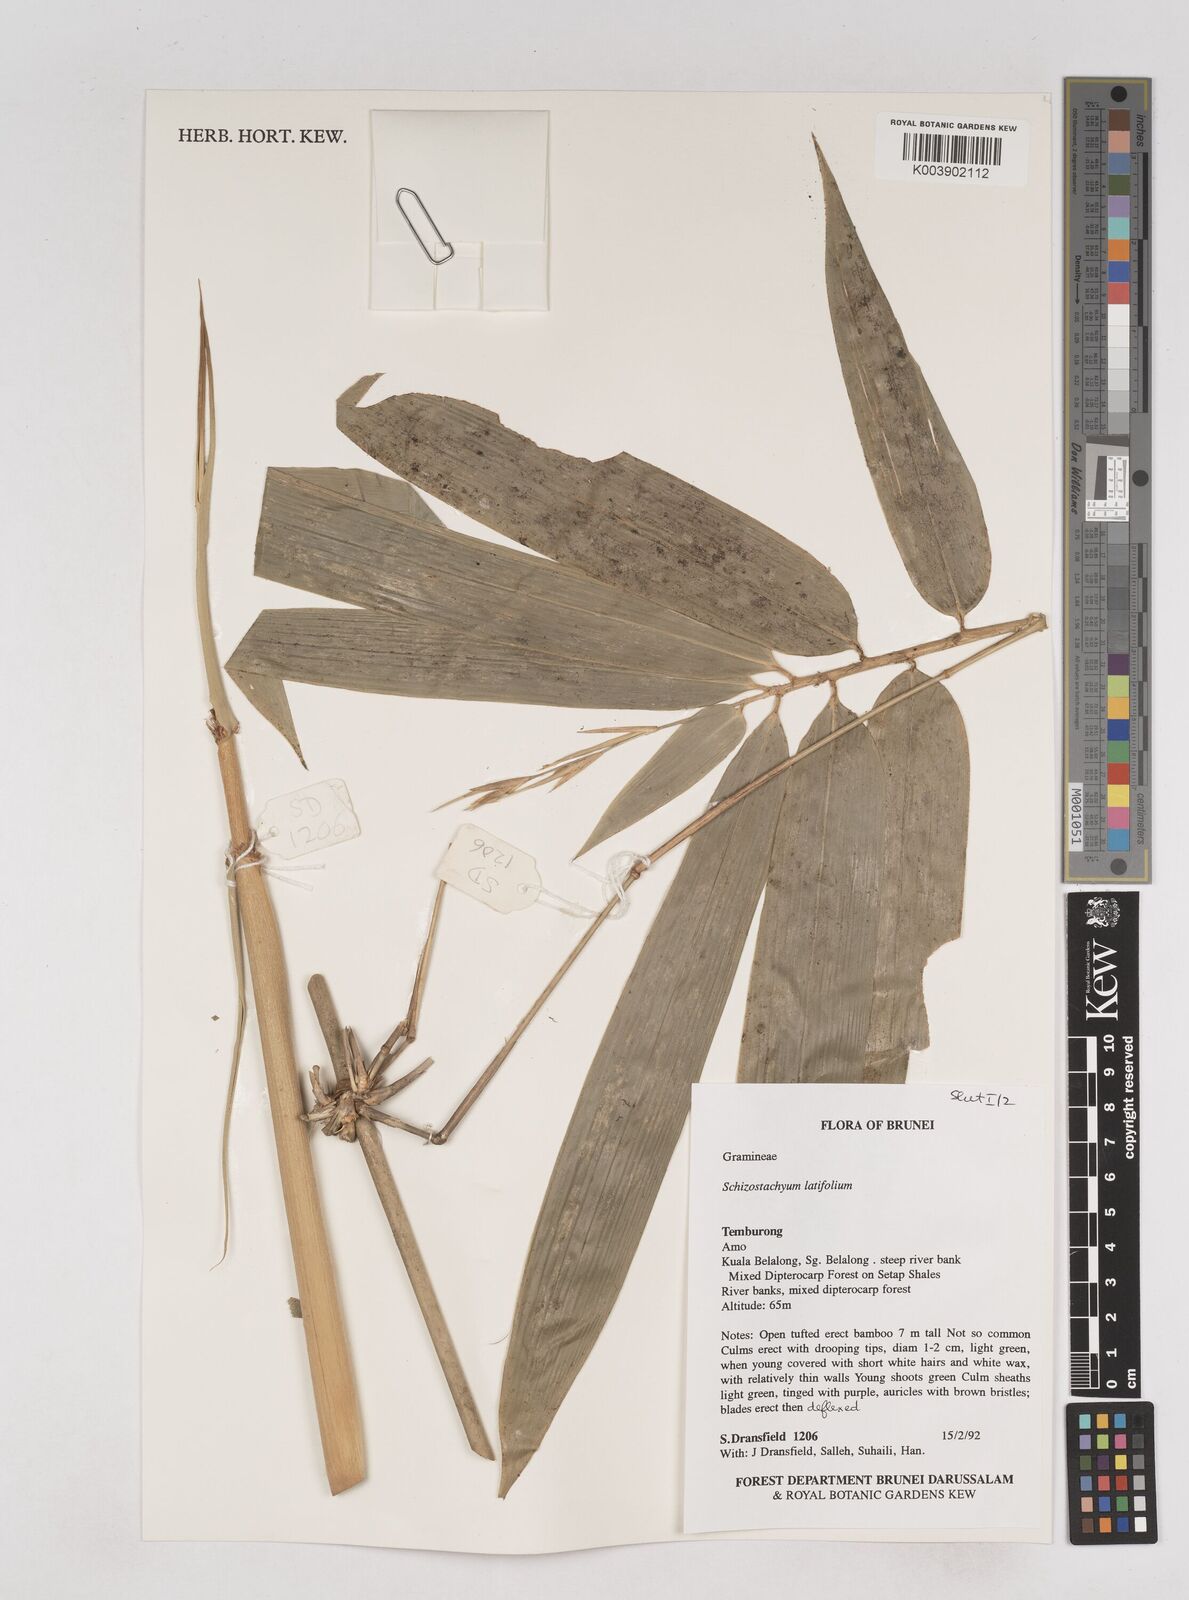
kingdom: Plantae
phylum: Tracheophyta
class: Liliopsida
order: Poales
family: Poaceae
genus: Schizostachyum
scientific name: Schizostachyum
